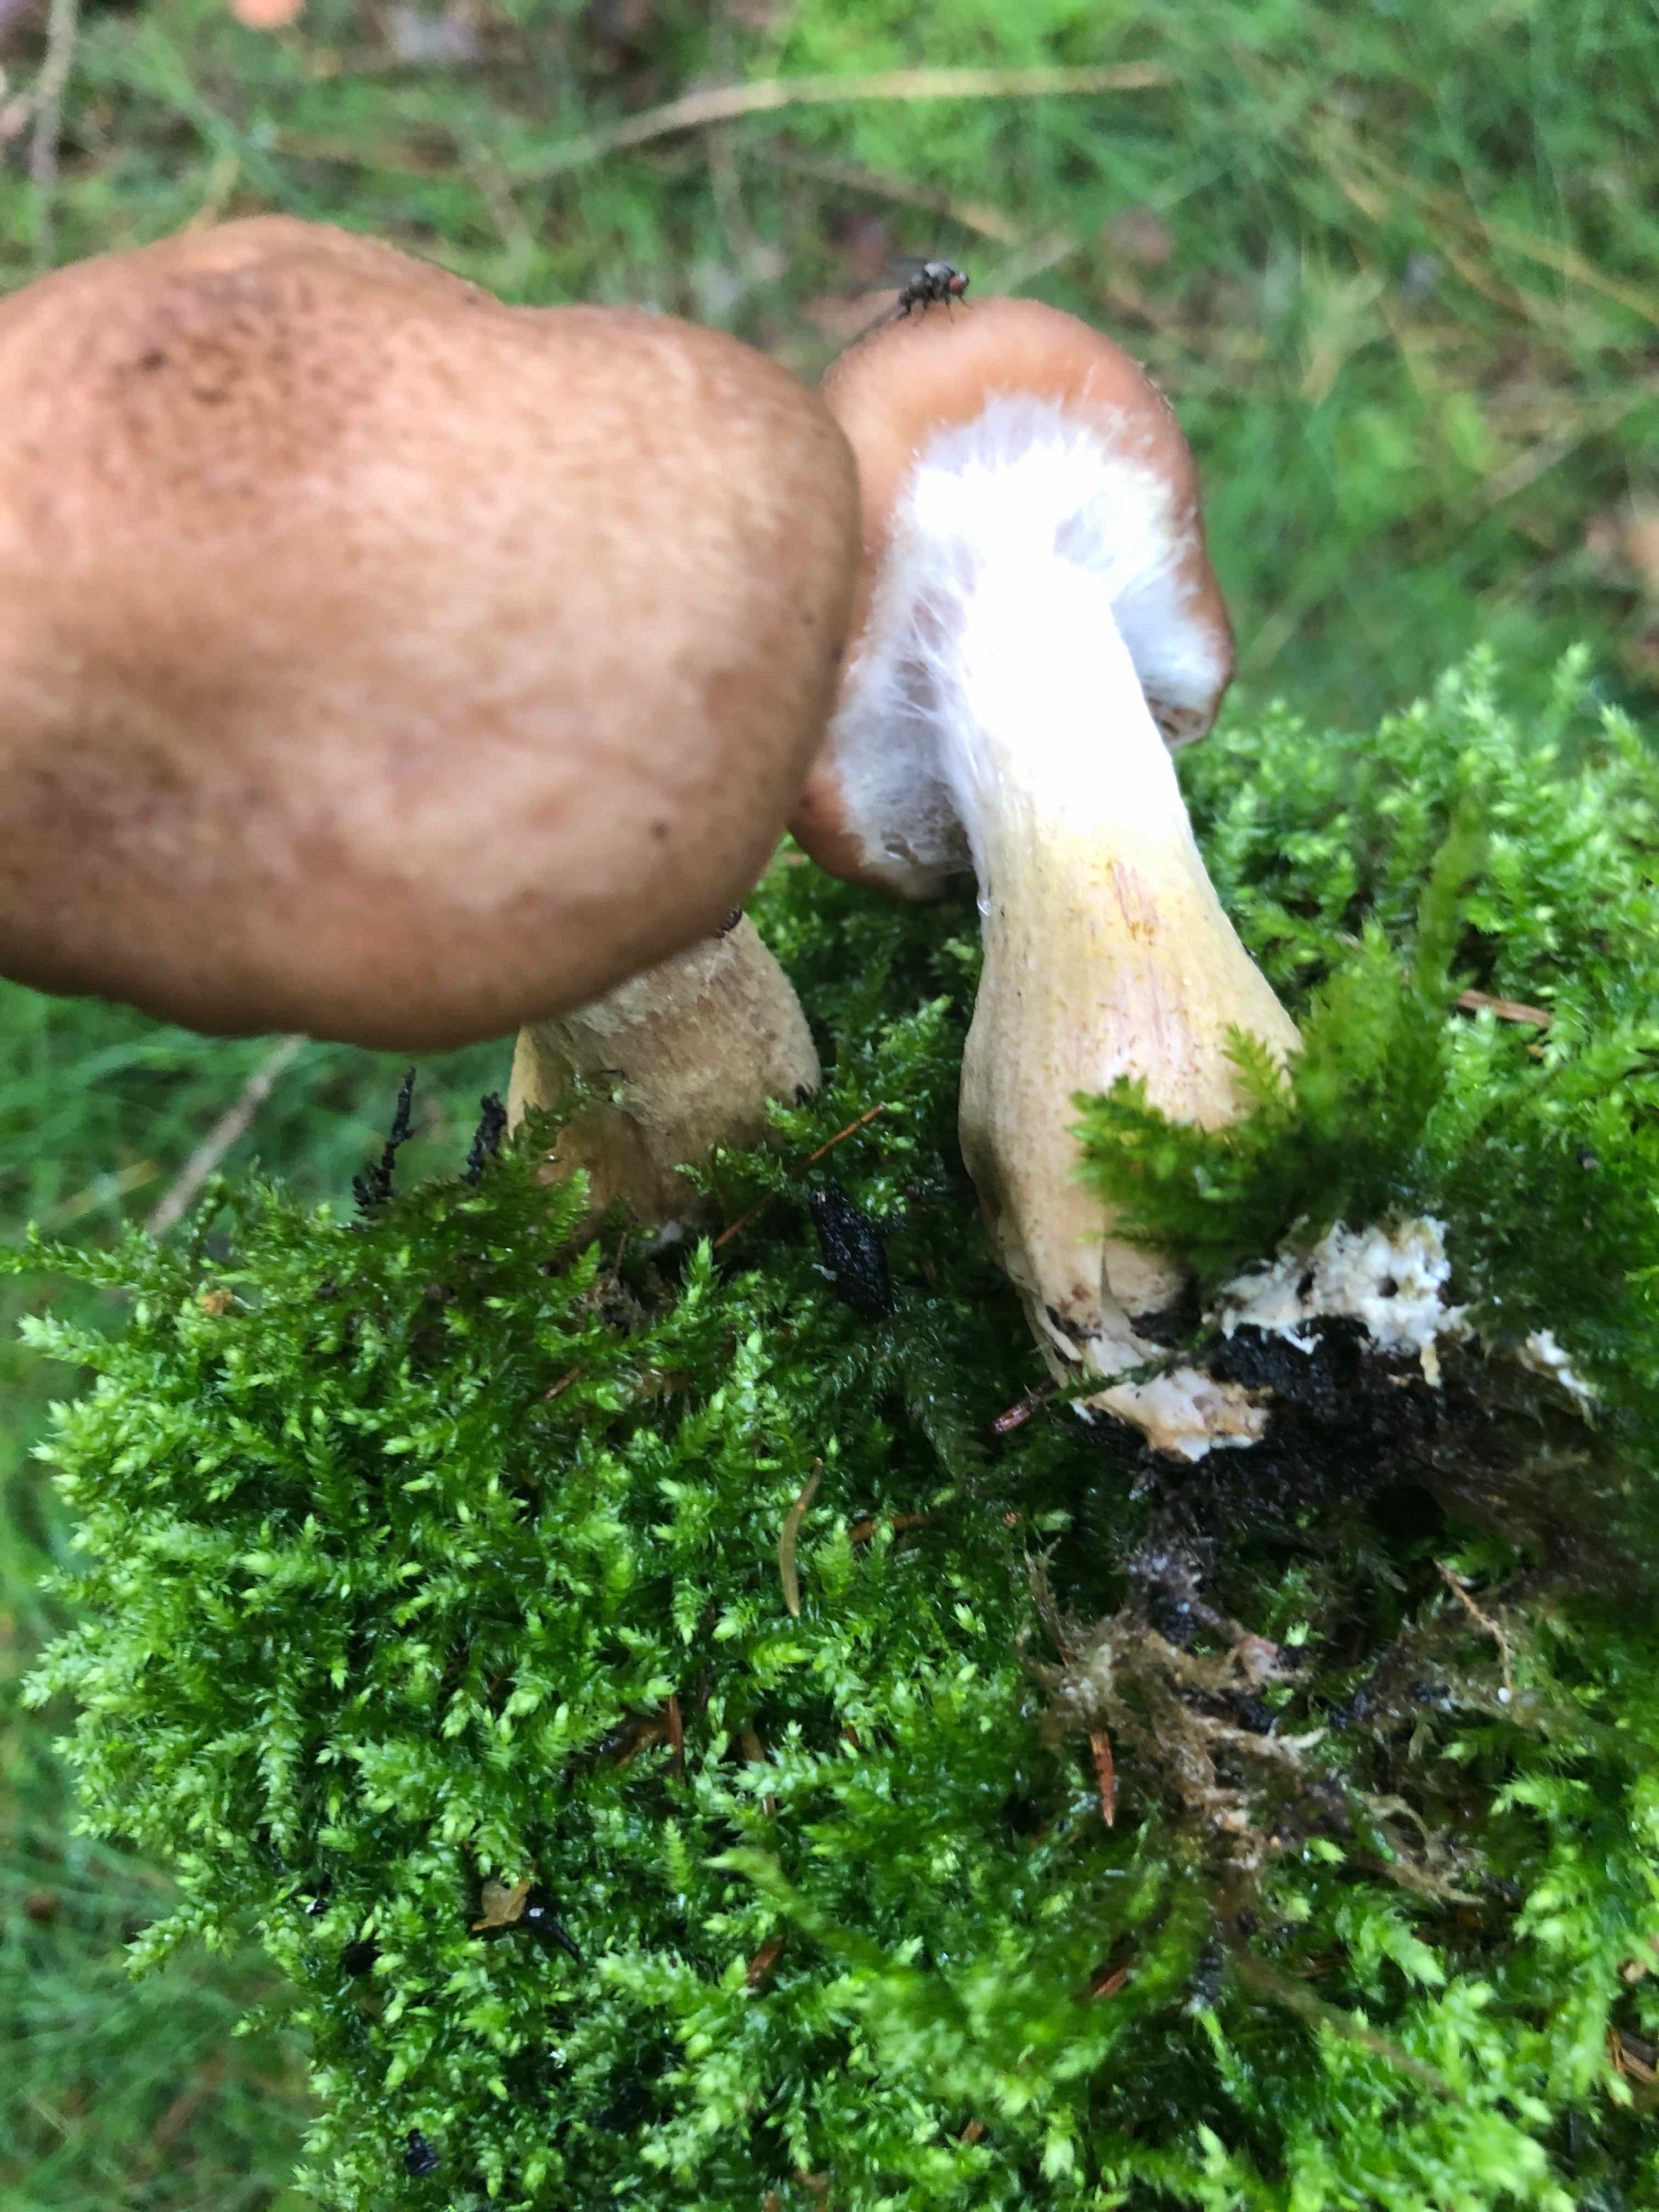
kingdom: Fungi
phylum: Basidiomycota
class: Agaricomycetes
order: Agaricales
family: Physalacriaceae
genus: Armillaria
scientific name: Armillaria lutea
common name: køllestokket honningsvamp
